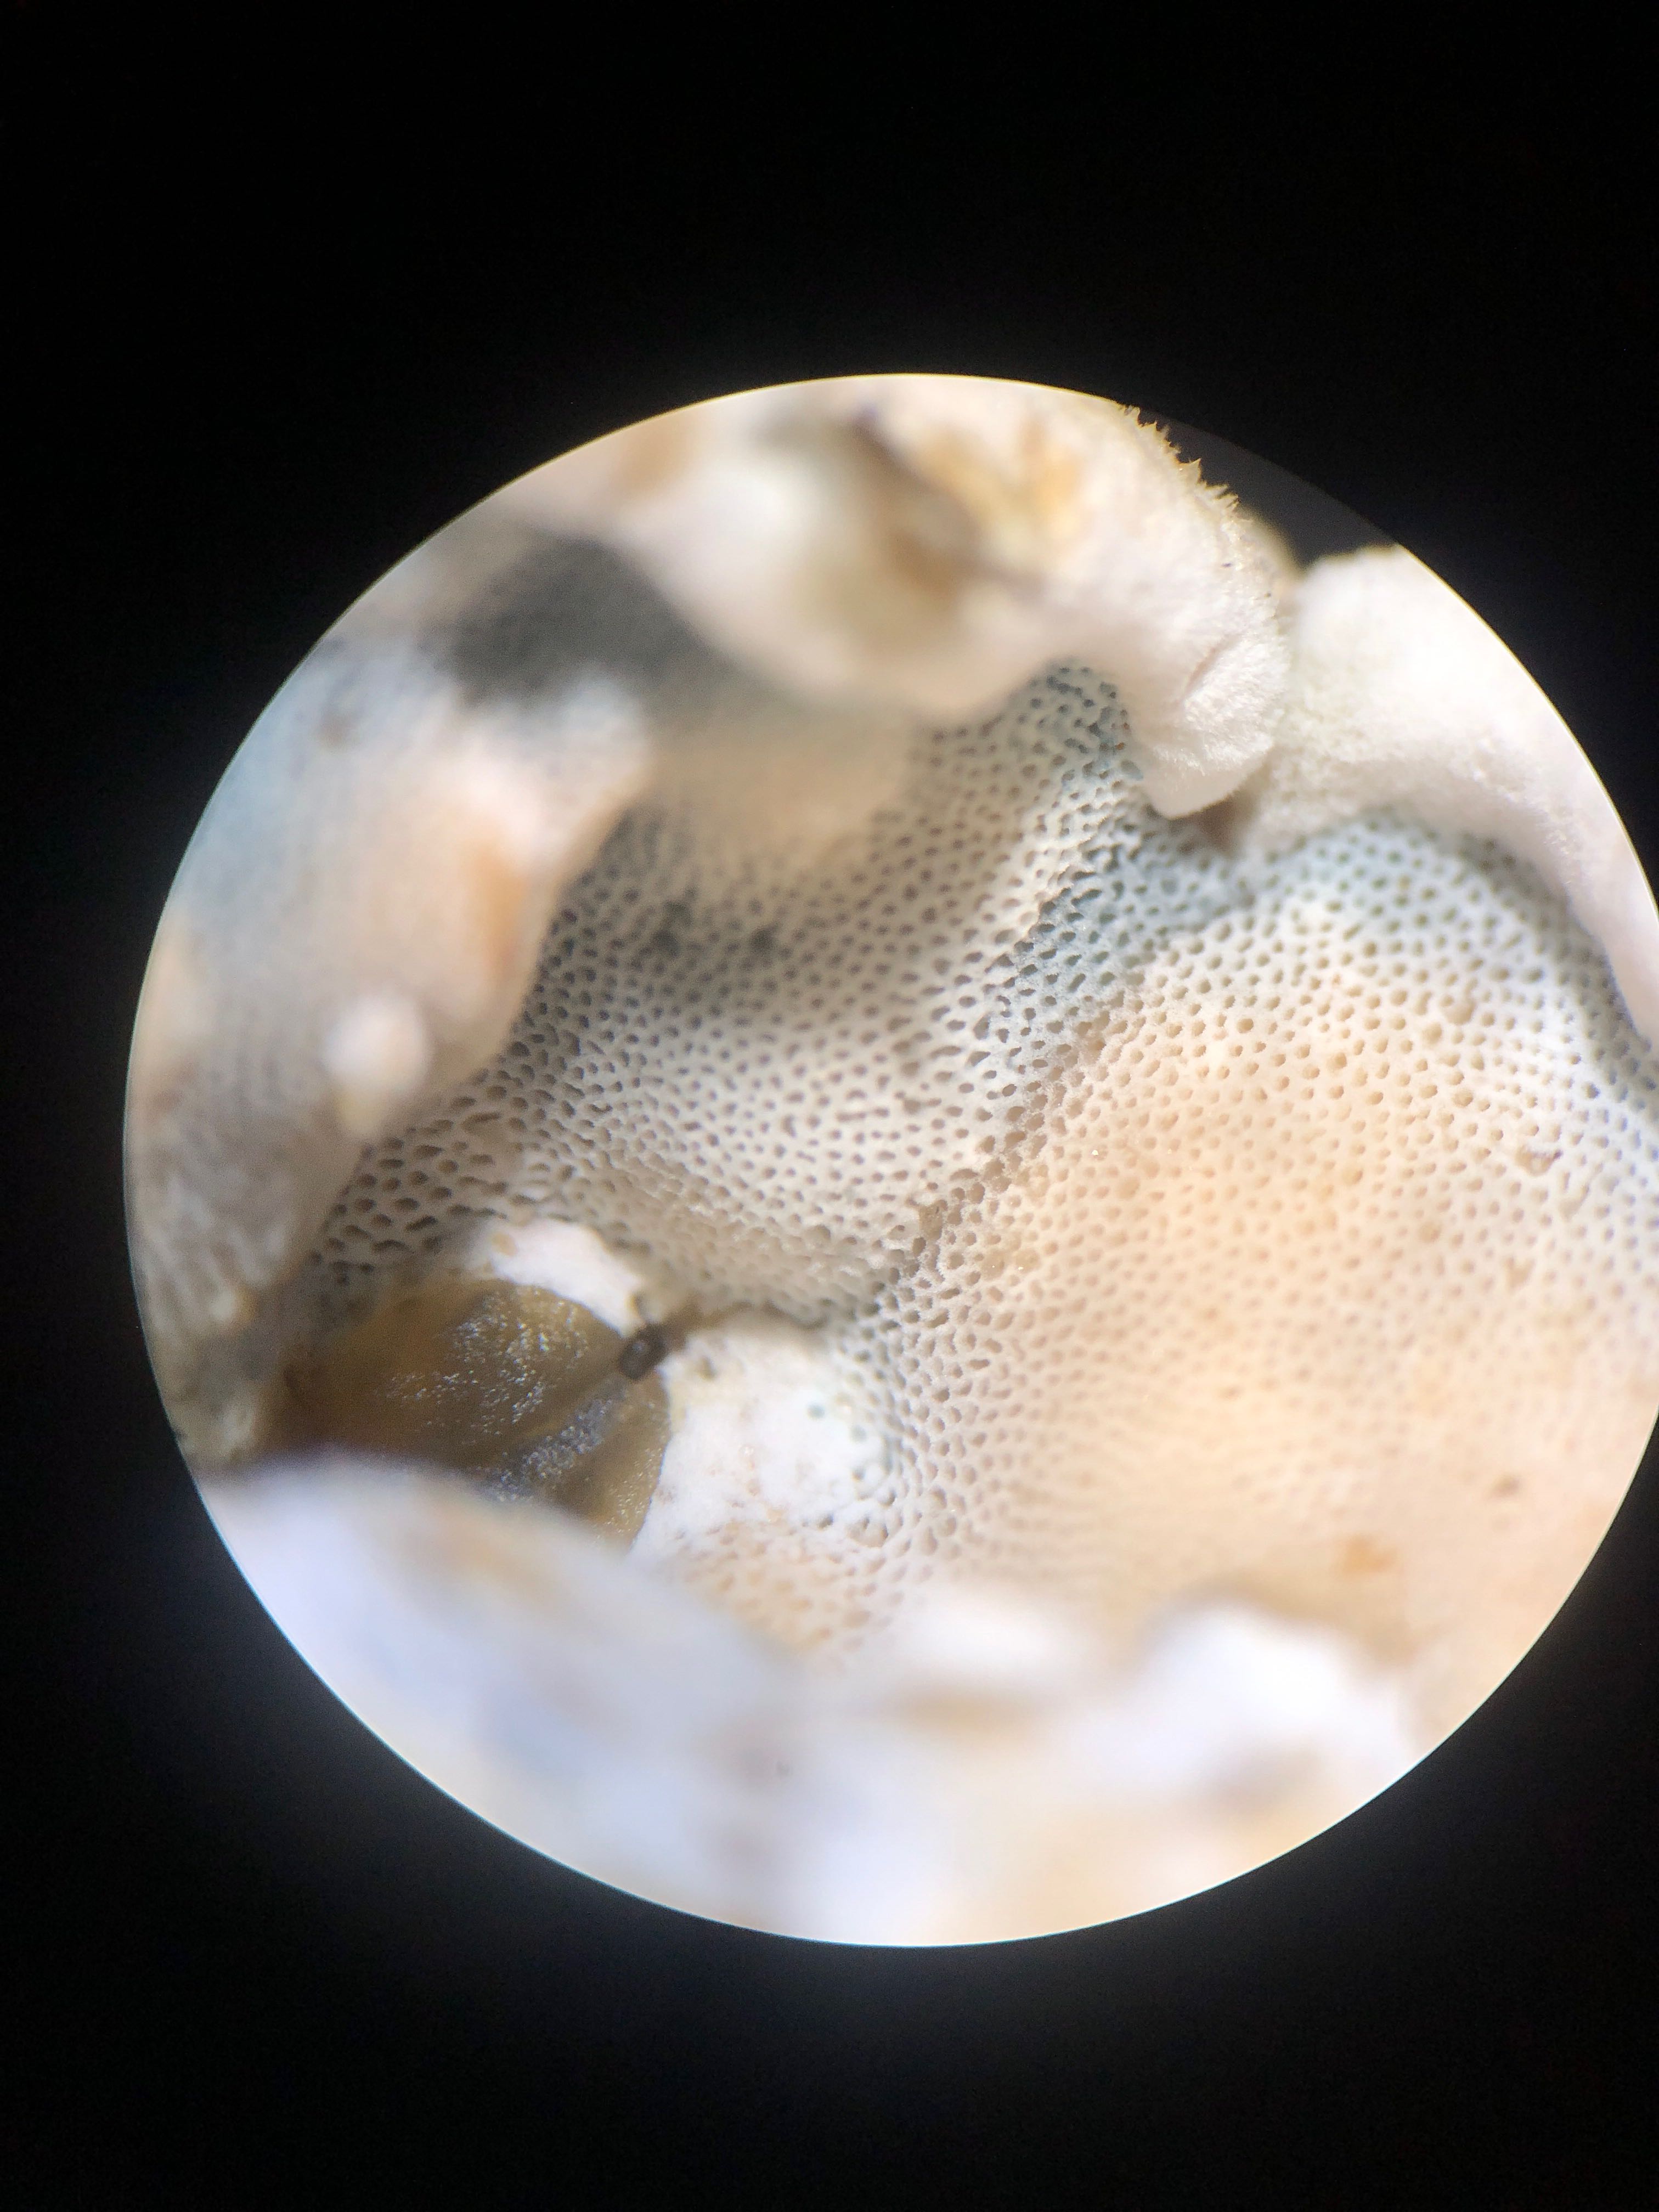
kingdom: Fungi
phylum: Basidiomycota
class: Agaricomycetes
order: Polyporales
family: Incrustoporiaceae
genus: Skeletocutis
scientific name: Skeletocutis nemoralis
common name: stor krystalporesvamp
